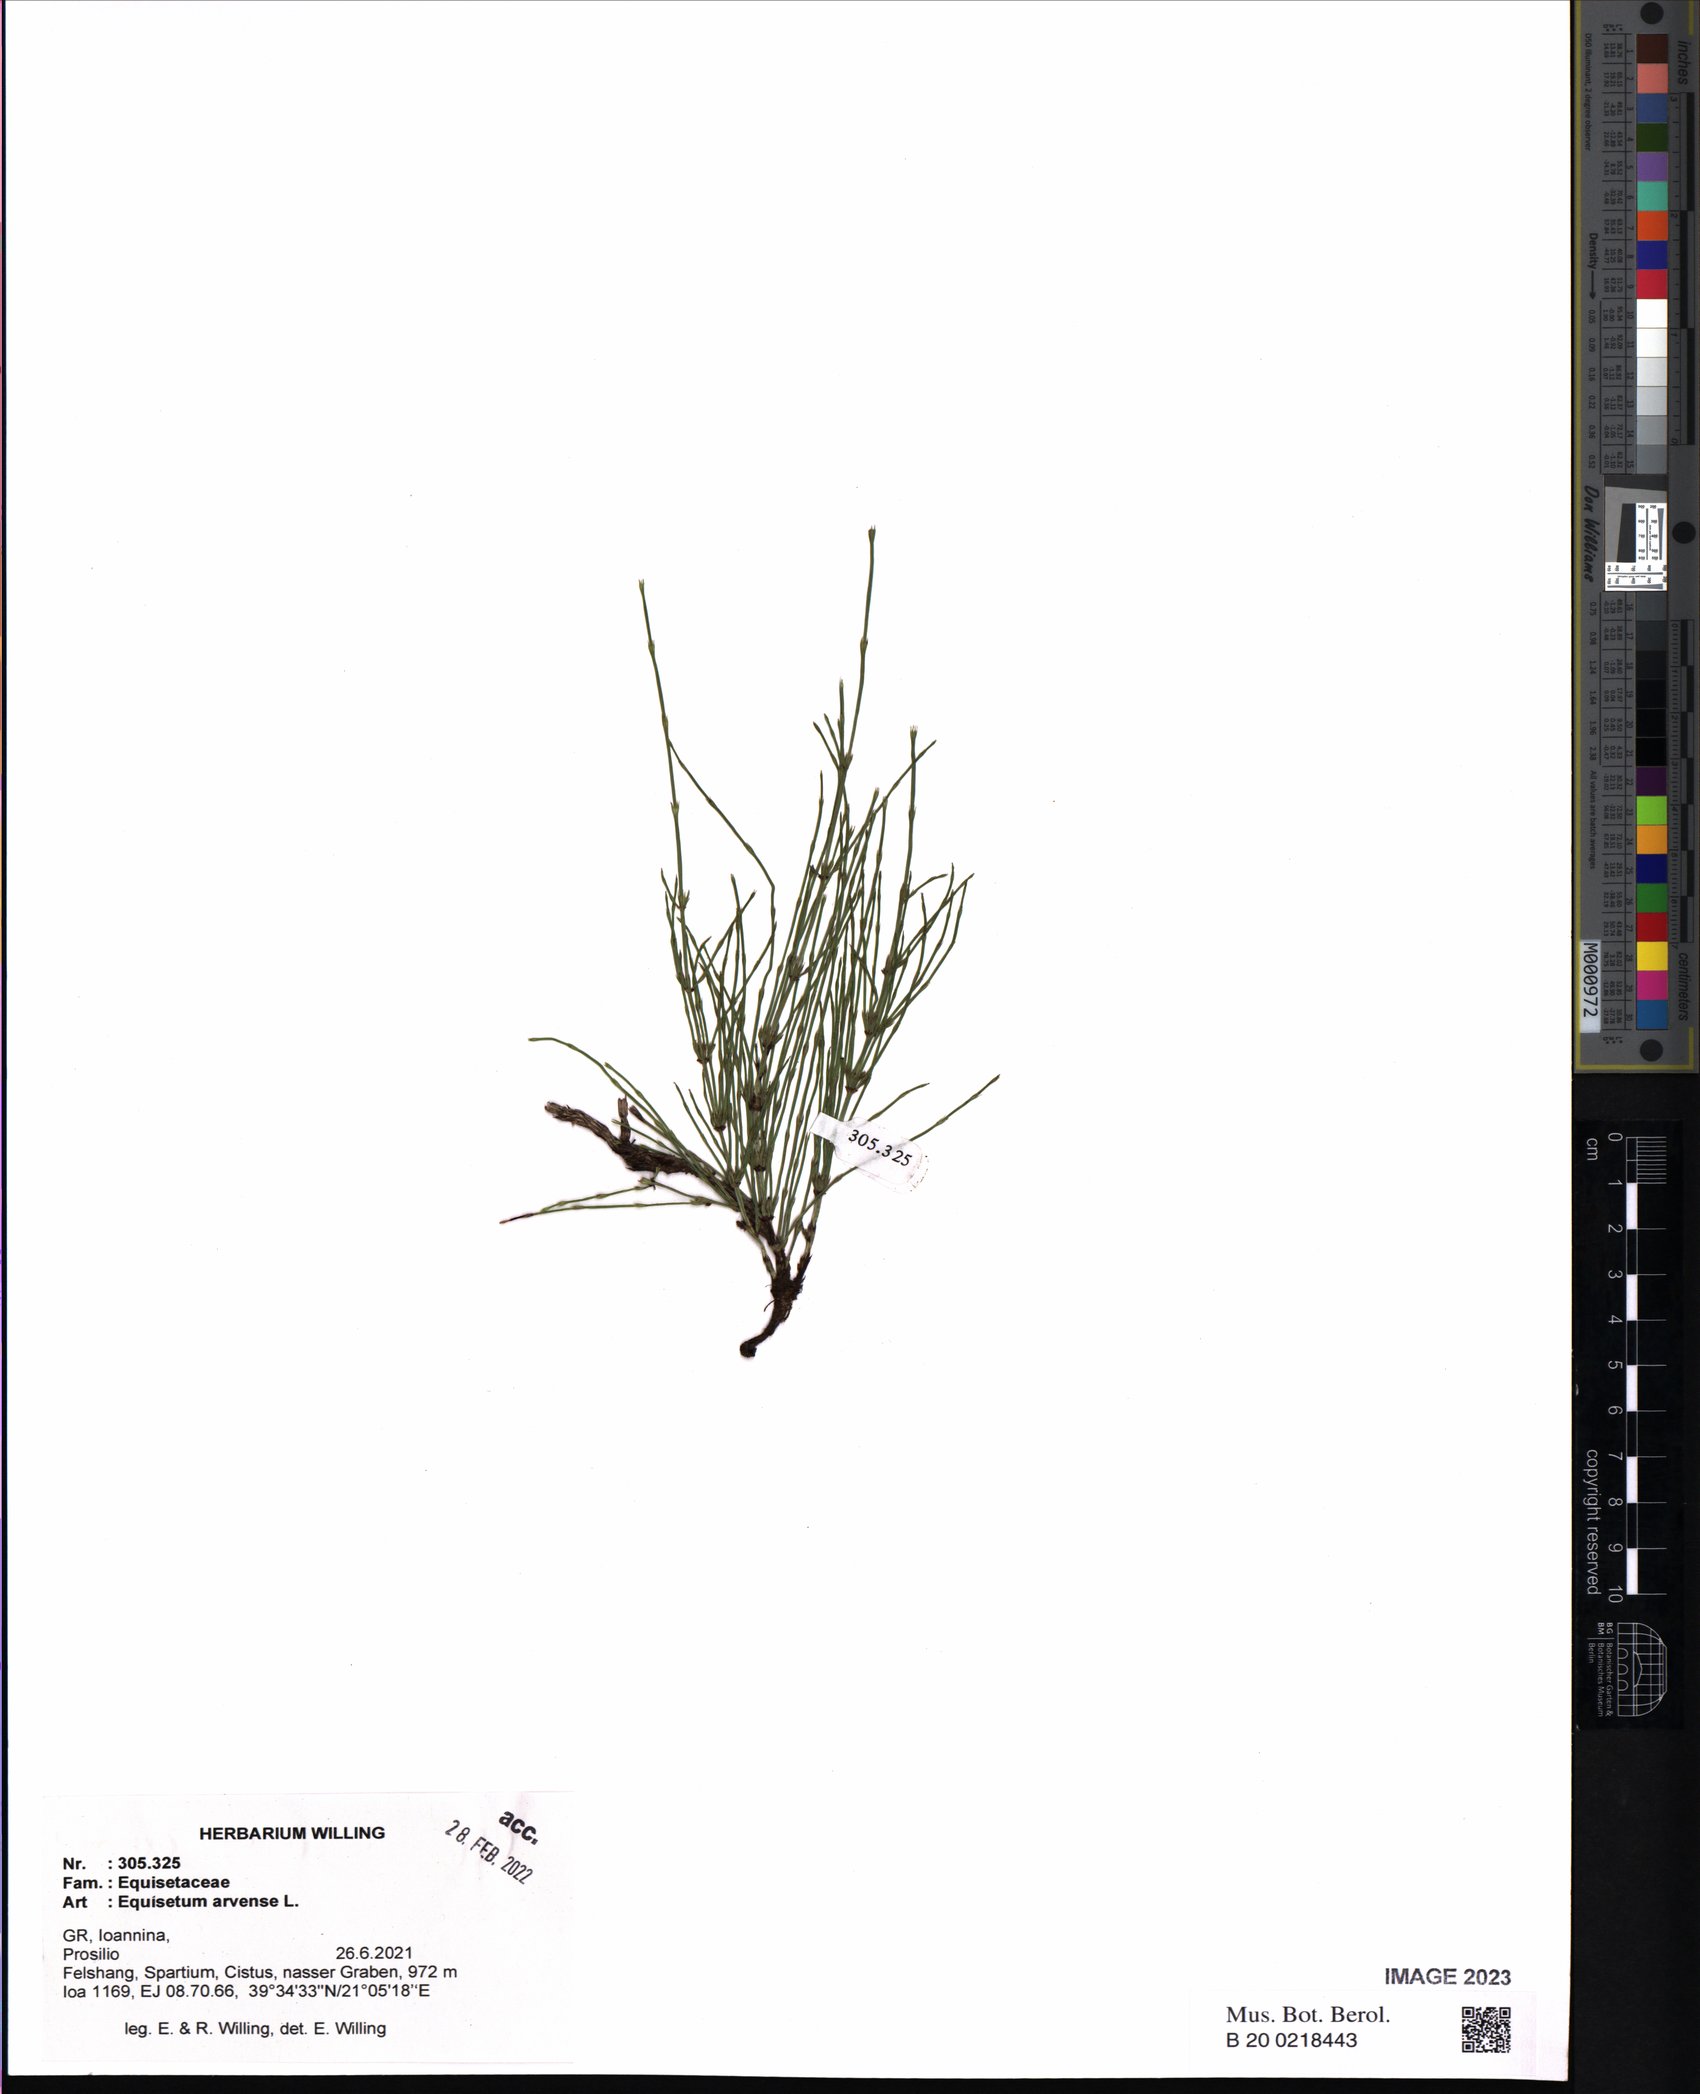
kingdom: Plantae
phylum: Tracheophyta
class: Polypodiopsida
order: Equisetales
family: Equisetaceae
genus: Equisetum
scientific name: Equisetum arvense
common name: Field horsetail
